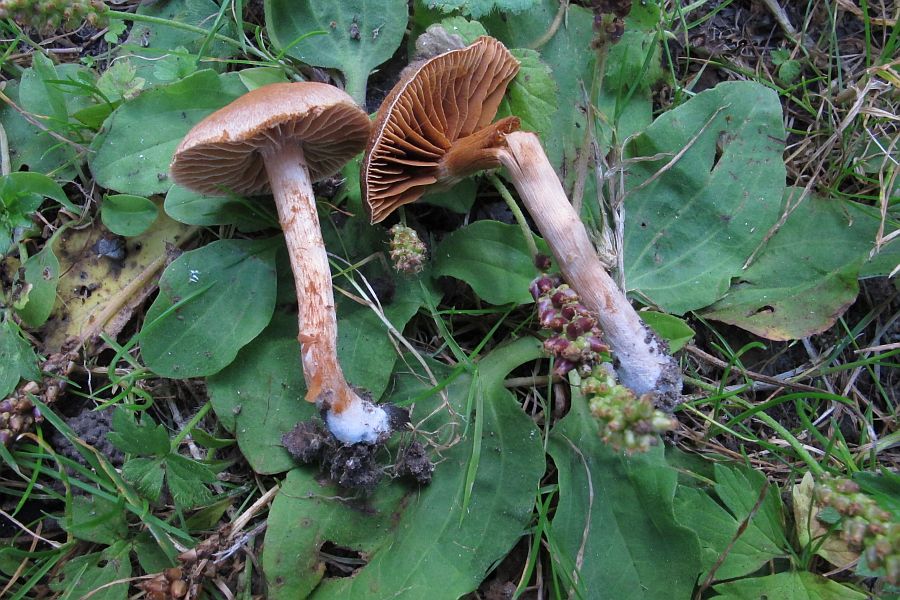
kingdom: Fungi
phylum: Basidiomycota
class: Agaricomycetes
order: Agaricales
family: Cortinariaceae
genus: Cortinarius
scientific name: Cortinarius
